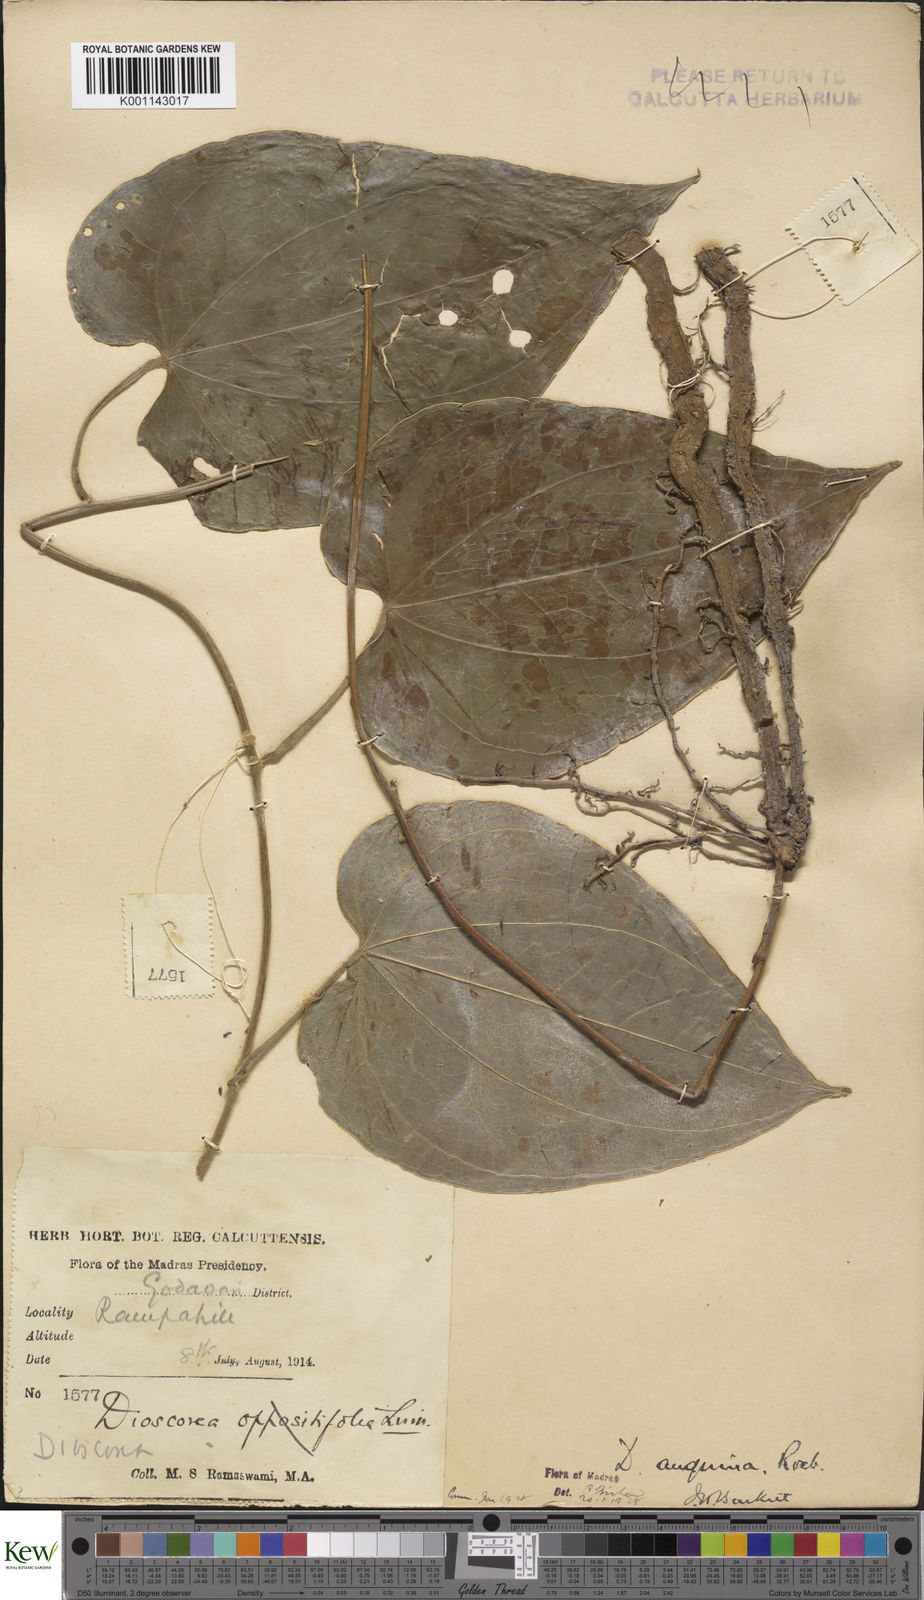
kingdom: Plantae
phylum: Tracheophyta
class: Liliopsida
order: Dioscoreales
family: Dioscoreaceae
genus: Dioscorea
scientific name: Dioscorea pubera
